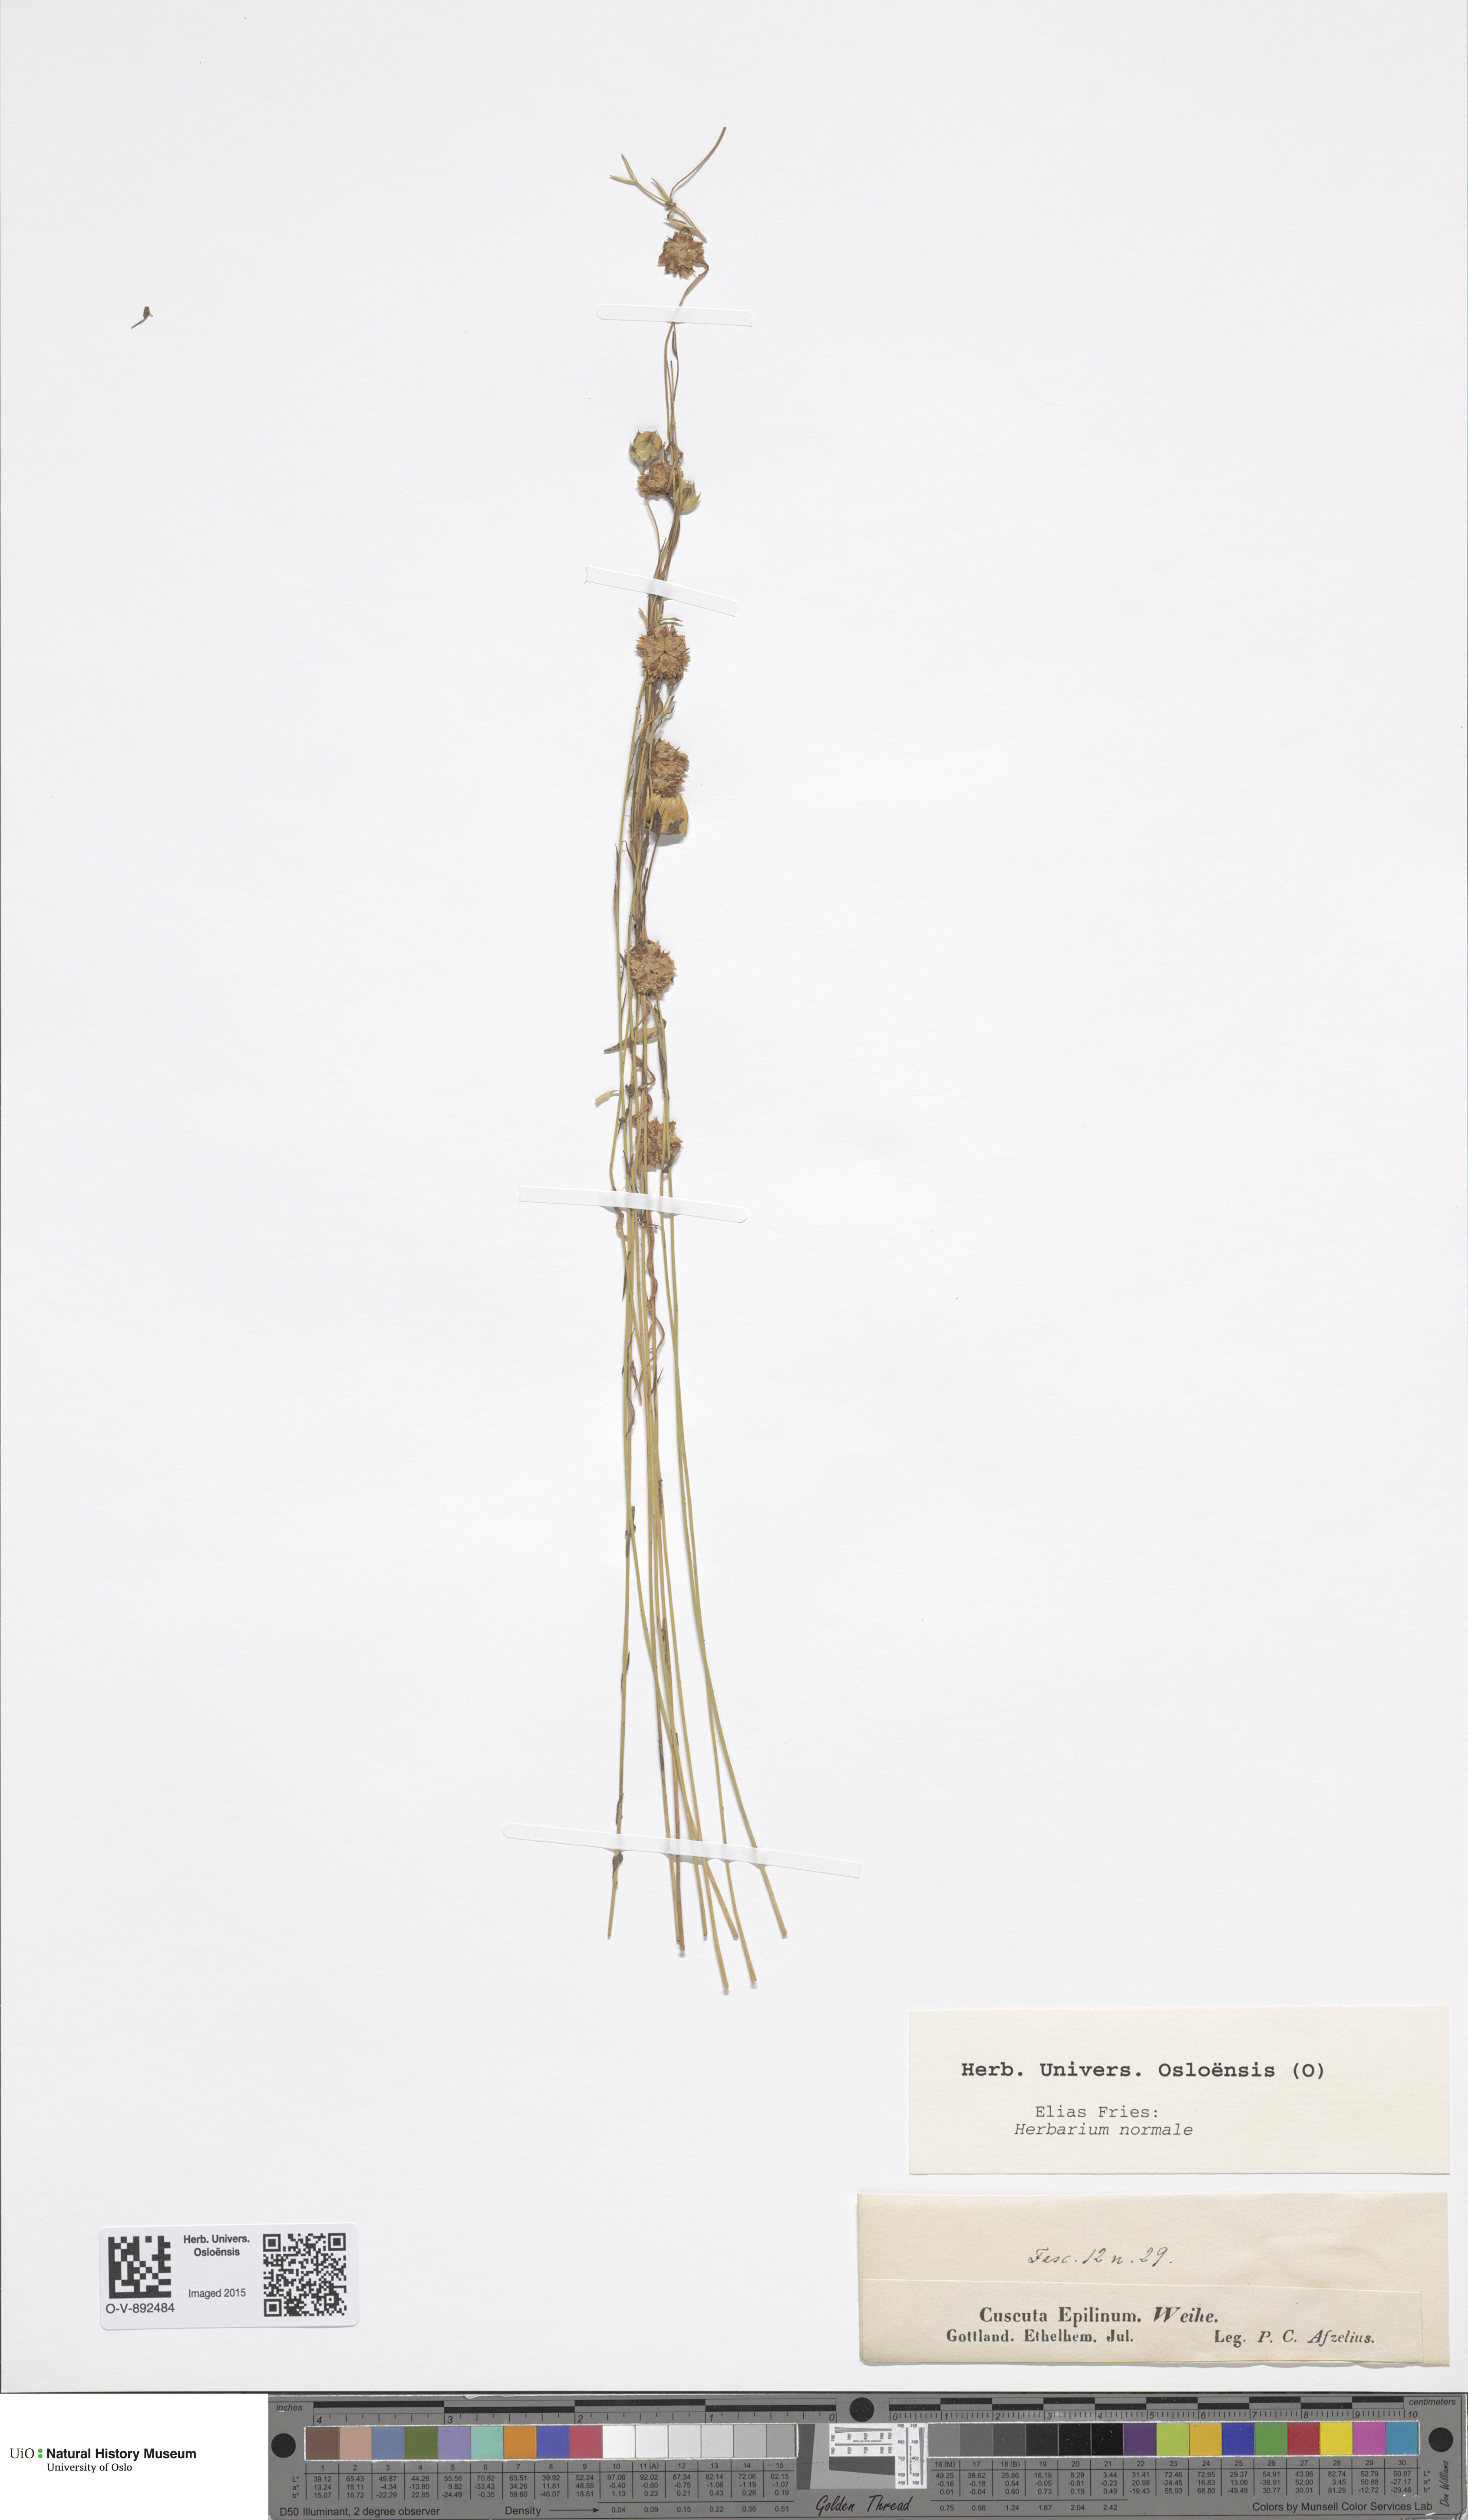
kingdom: Plantae
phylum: Tracheophyta
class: Magnoliopsida
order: Solanales
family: Convolvulaceae
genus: Cuscuta
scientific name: Cuscuta epilinum
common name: Flax dodder
